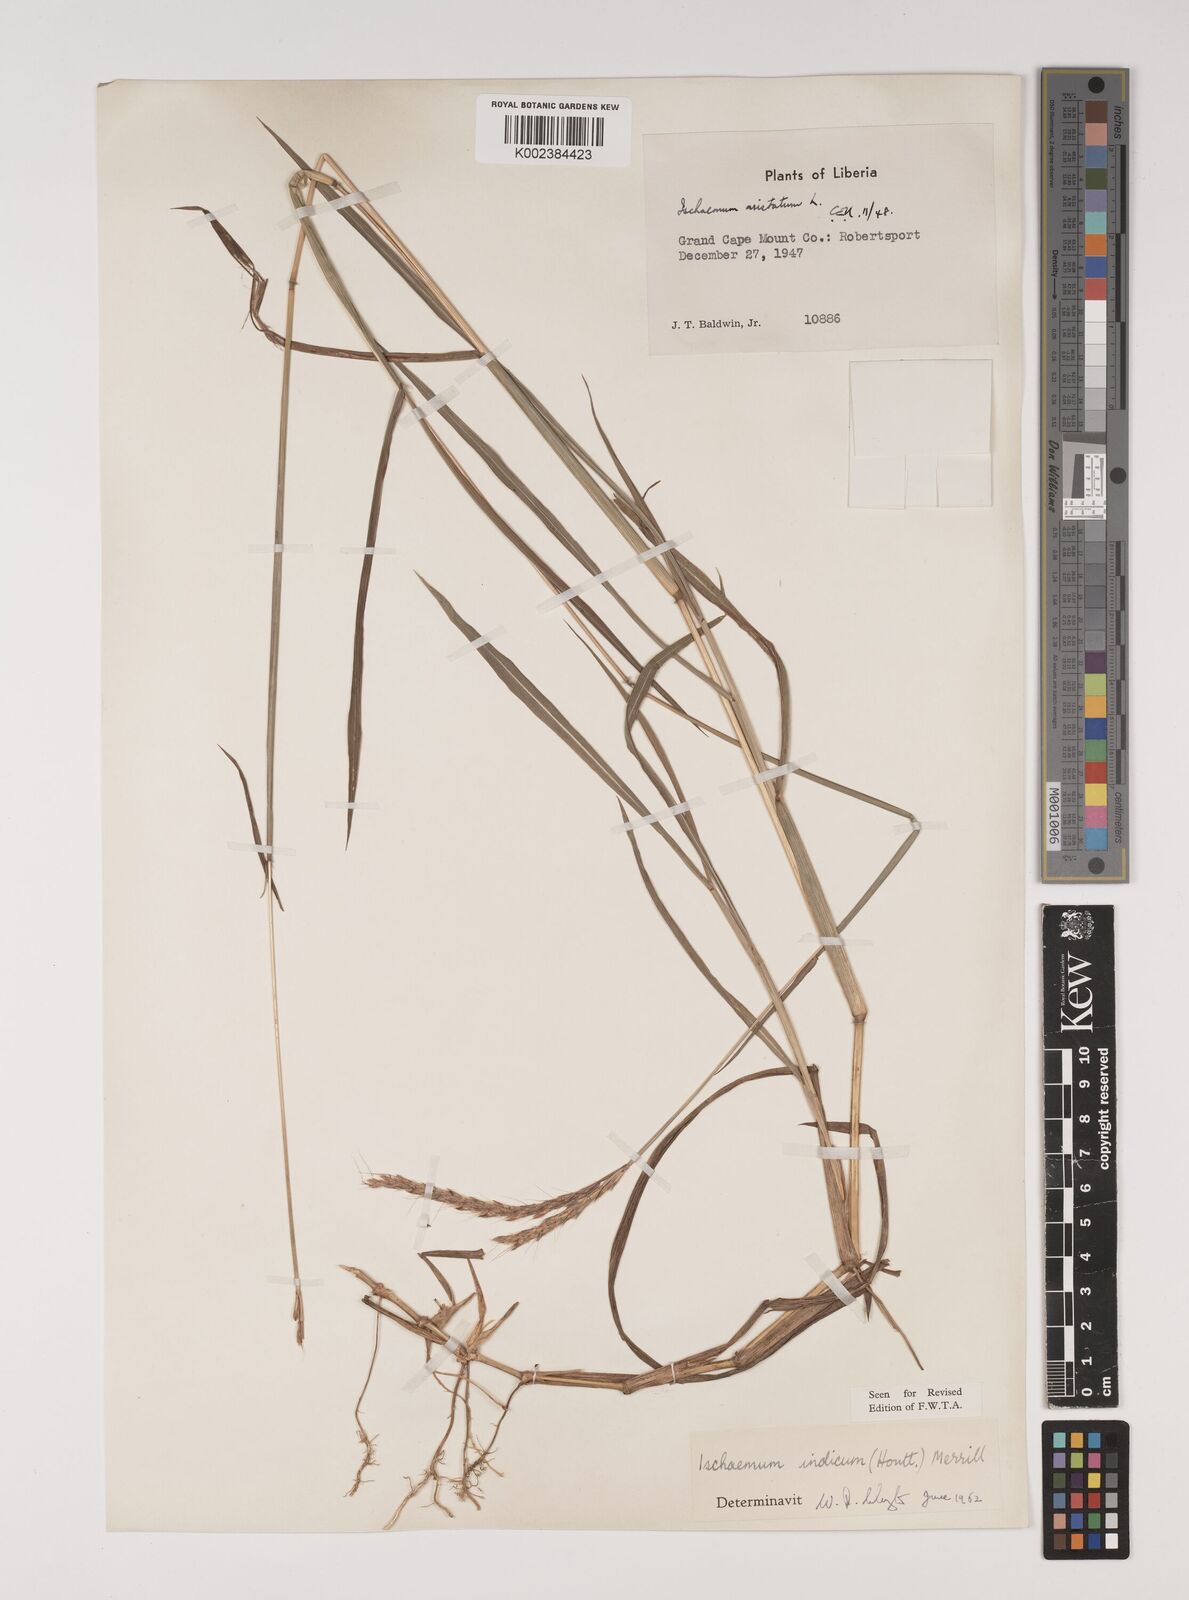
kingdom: Plantae
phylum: Tracheophyta
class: Liliopsida
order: Poales
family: Poaceae
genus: Polytrias
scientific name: Polytrias indica
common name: Indian murainagrass
